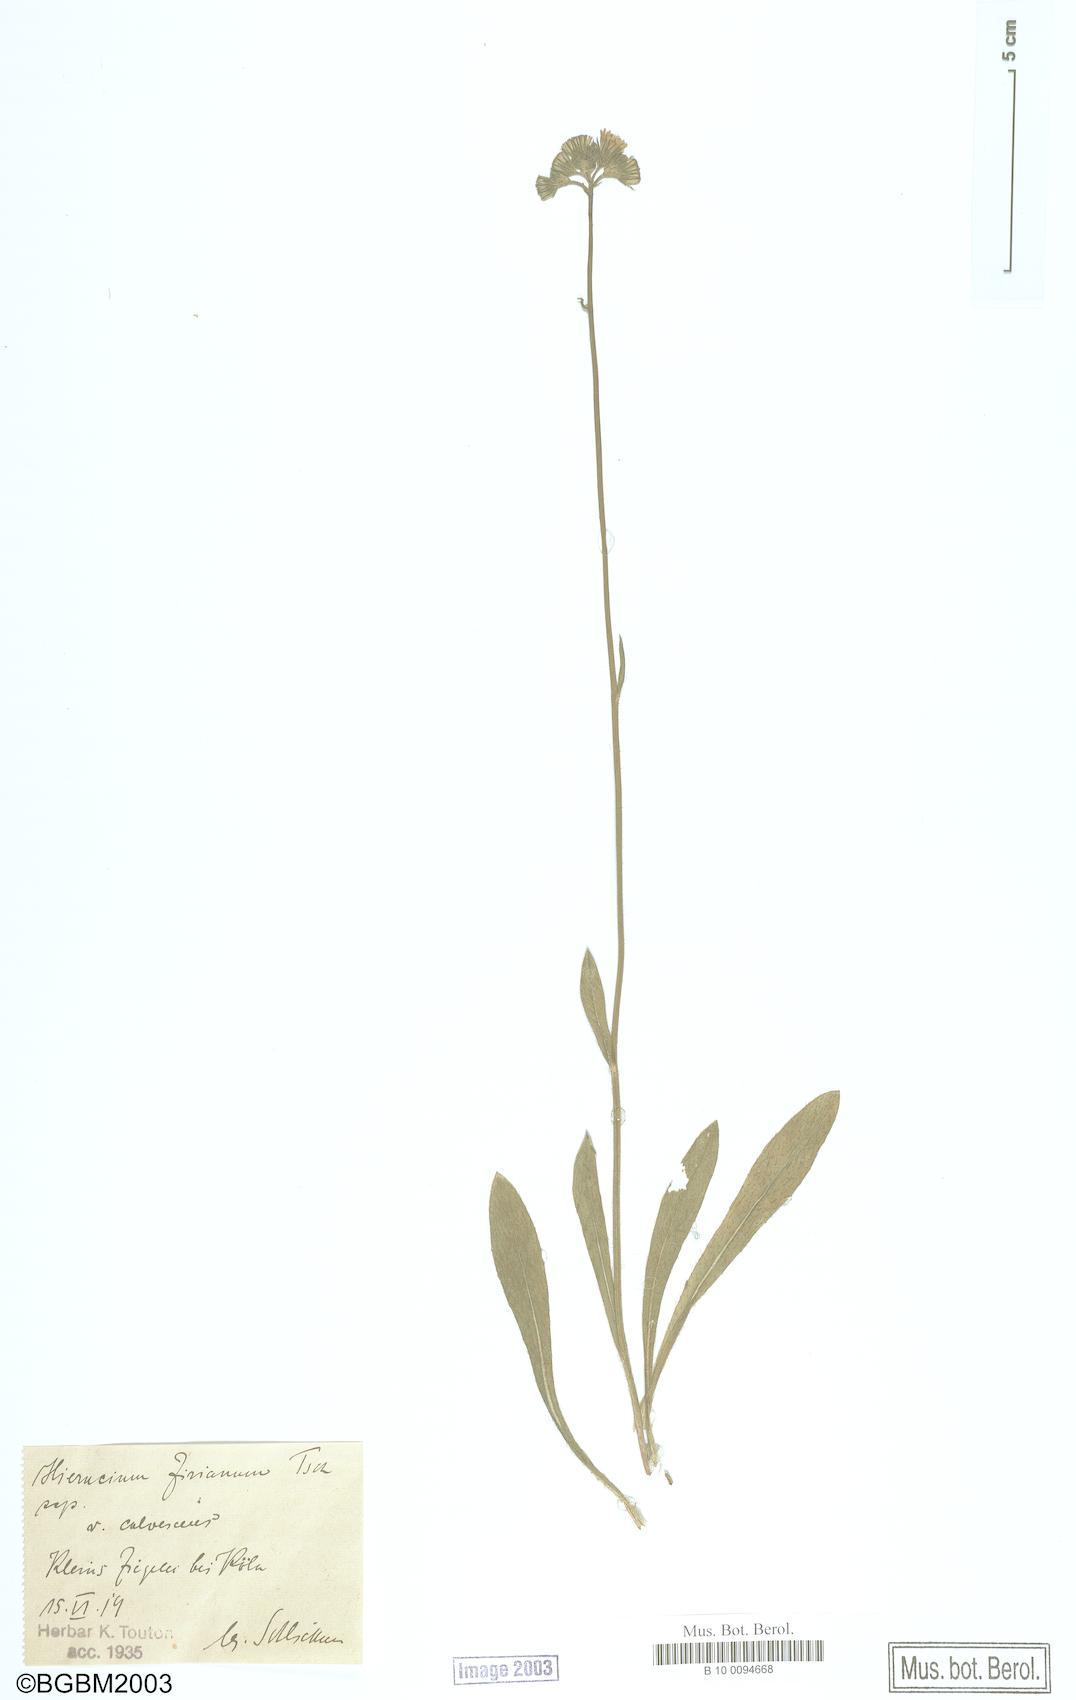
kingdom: Plantae
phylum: Tracheophyta
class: Magnoliopsida
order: Asterales
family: Asteraceae
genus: Pilosella
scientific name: Pilosella ziziana
